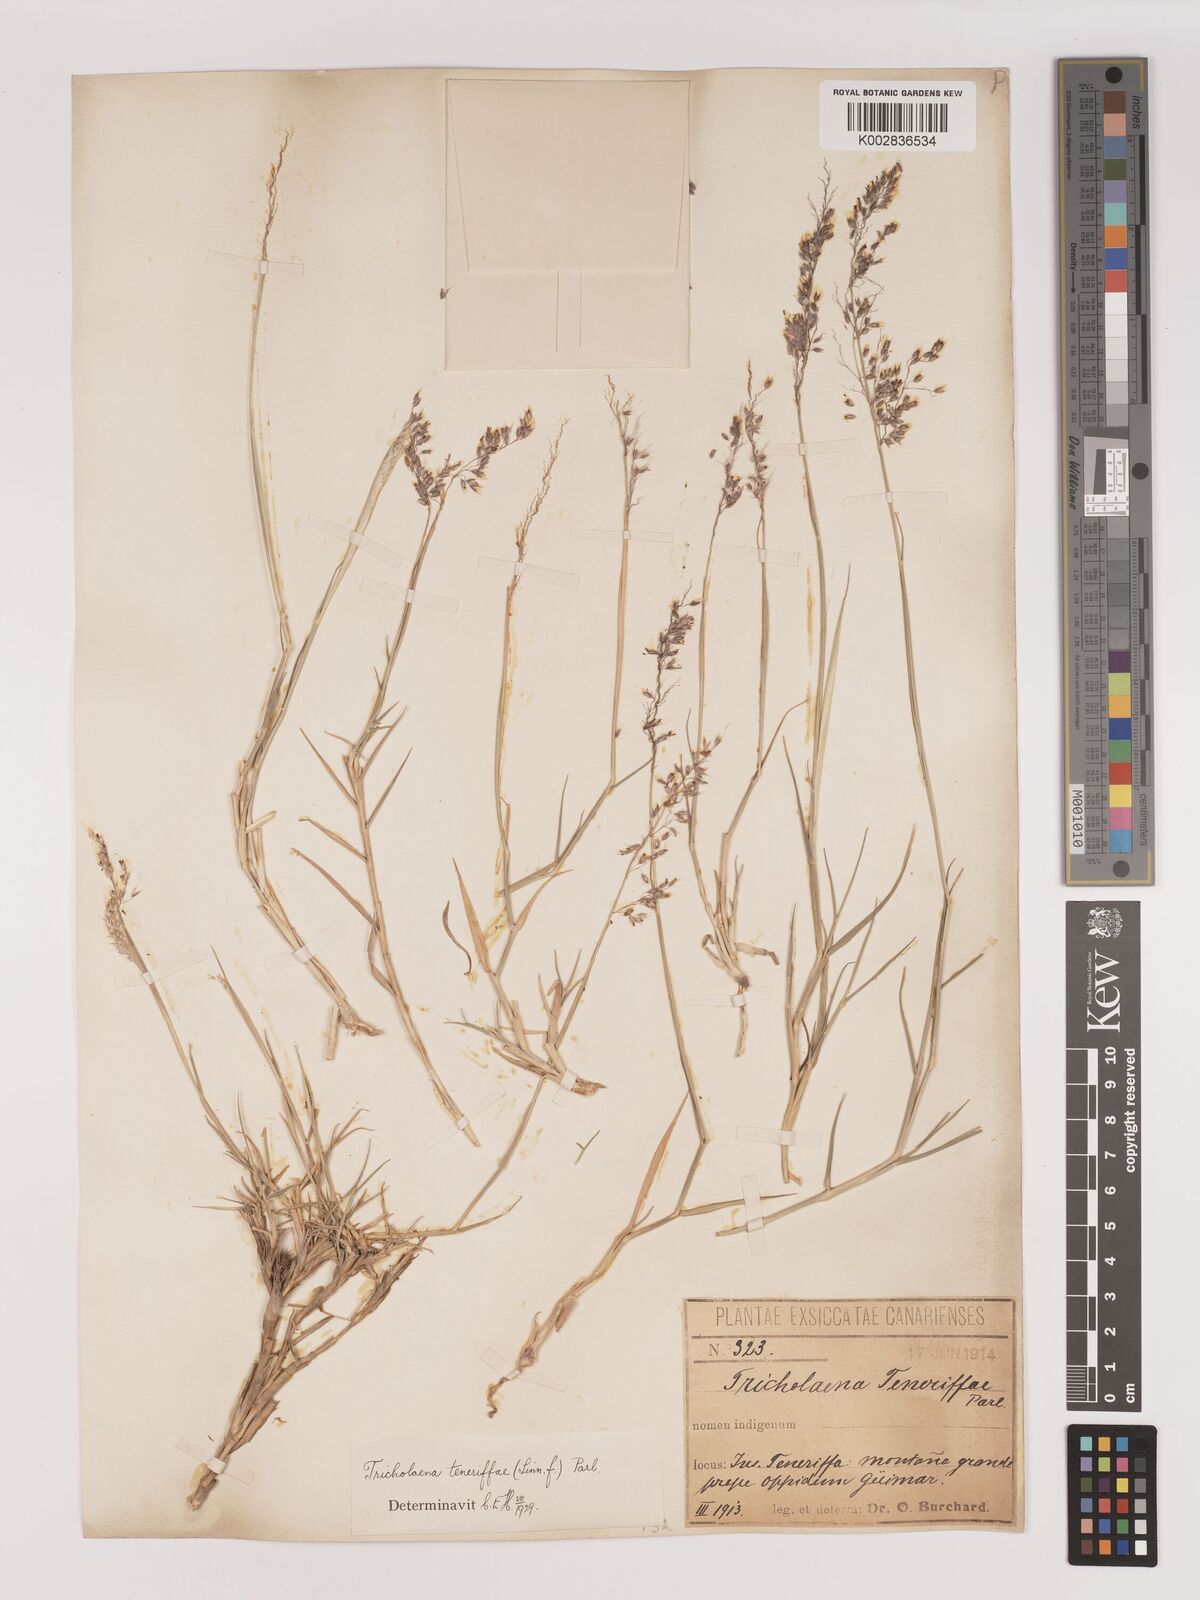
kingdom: Plantae
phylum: Tracheophyta
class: Liliopsida
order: Poales
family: Poaceae
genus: Tricholaena
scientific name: Tricholaena teneriffae
